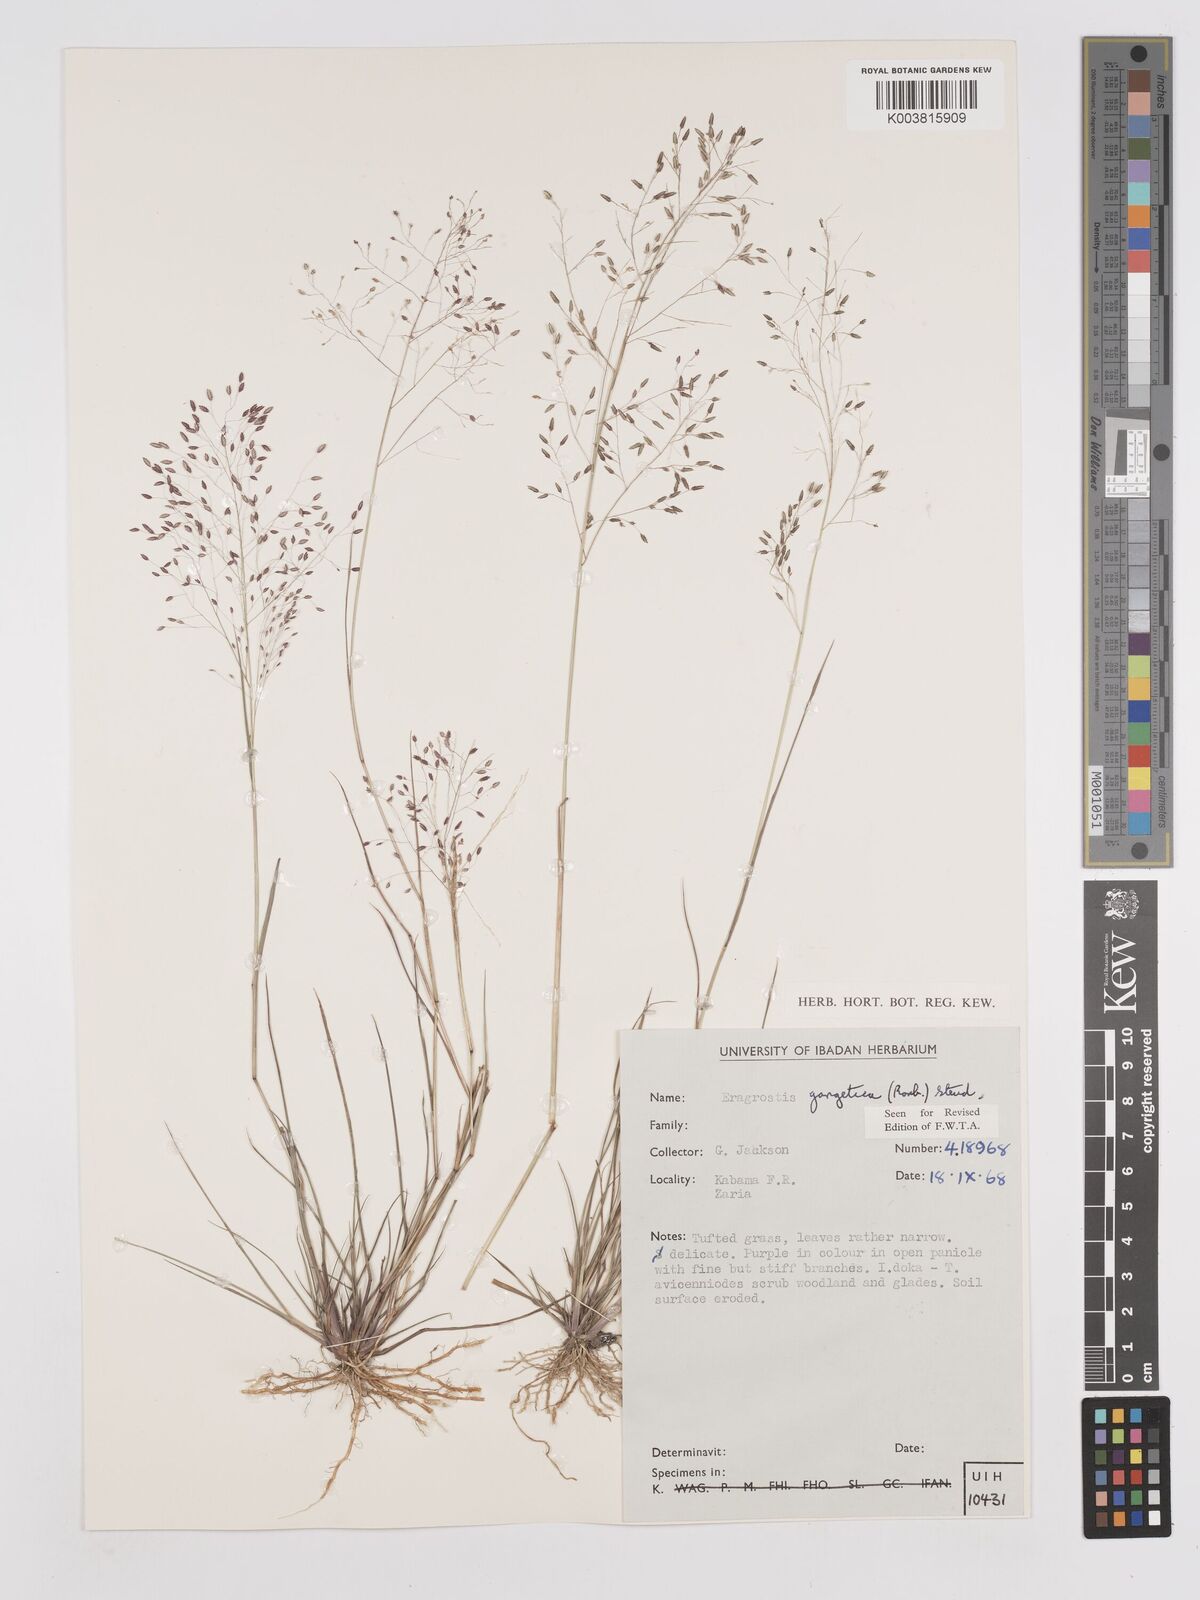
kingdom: Plantae
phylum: Tracheophyta
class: Liliopsida
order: Poales
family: Poaceae
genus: Eragrostis
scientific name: Eragrostis gangetica
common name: Slimflower lovegrass
